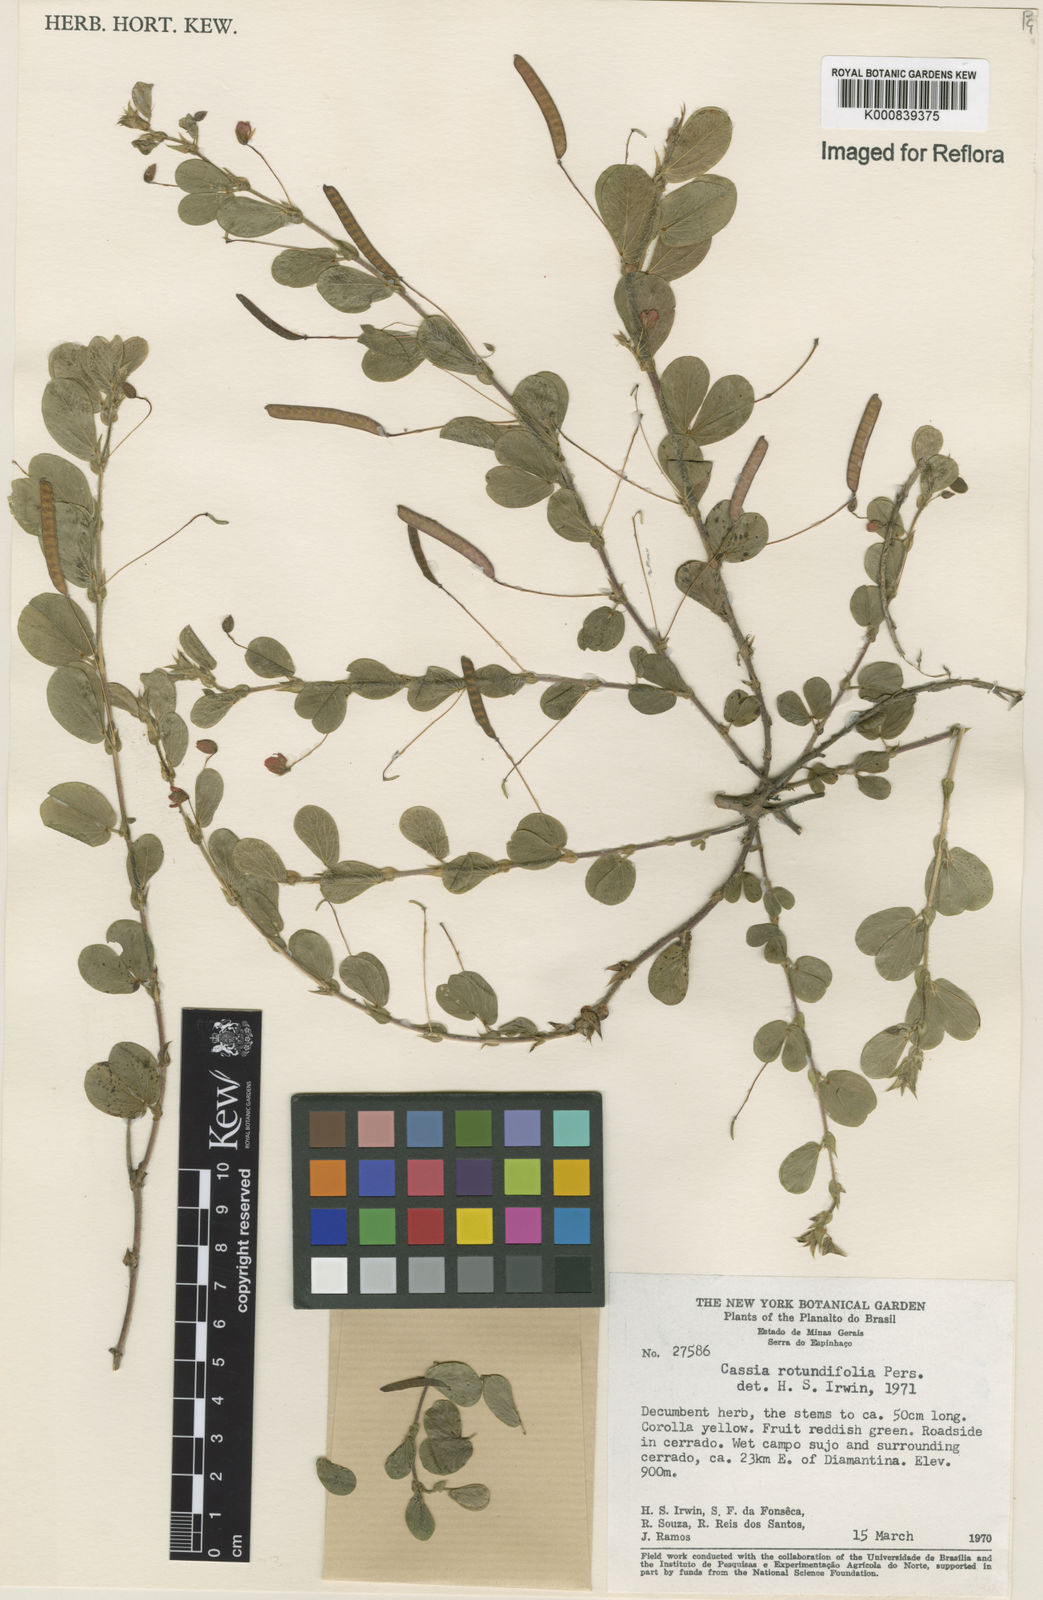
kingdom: Plantae
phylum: Tracheophyta
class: Magnoliopsida
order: Fabales
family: Fabaceae
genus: Chamaecrista
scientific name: Chamaecrista rotundifolia
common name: Round-leaf cassia
